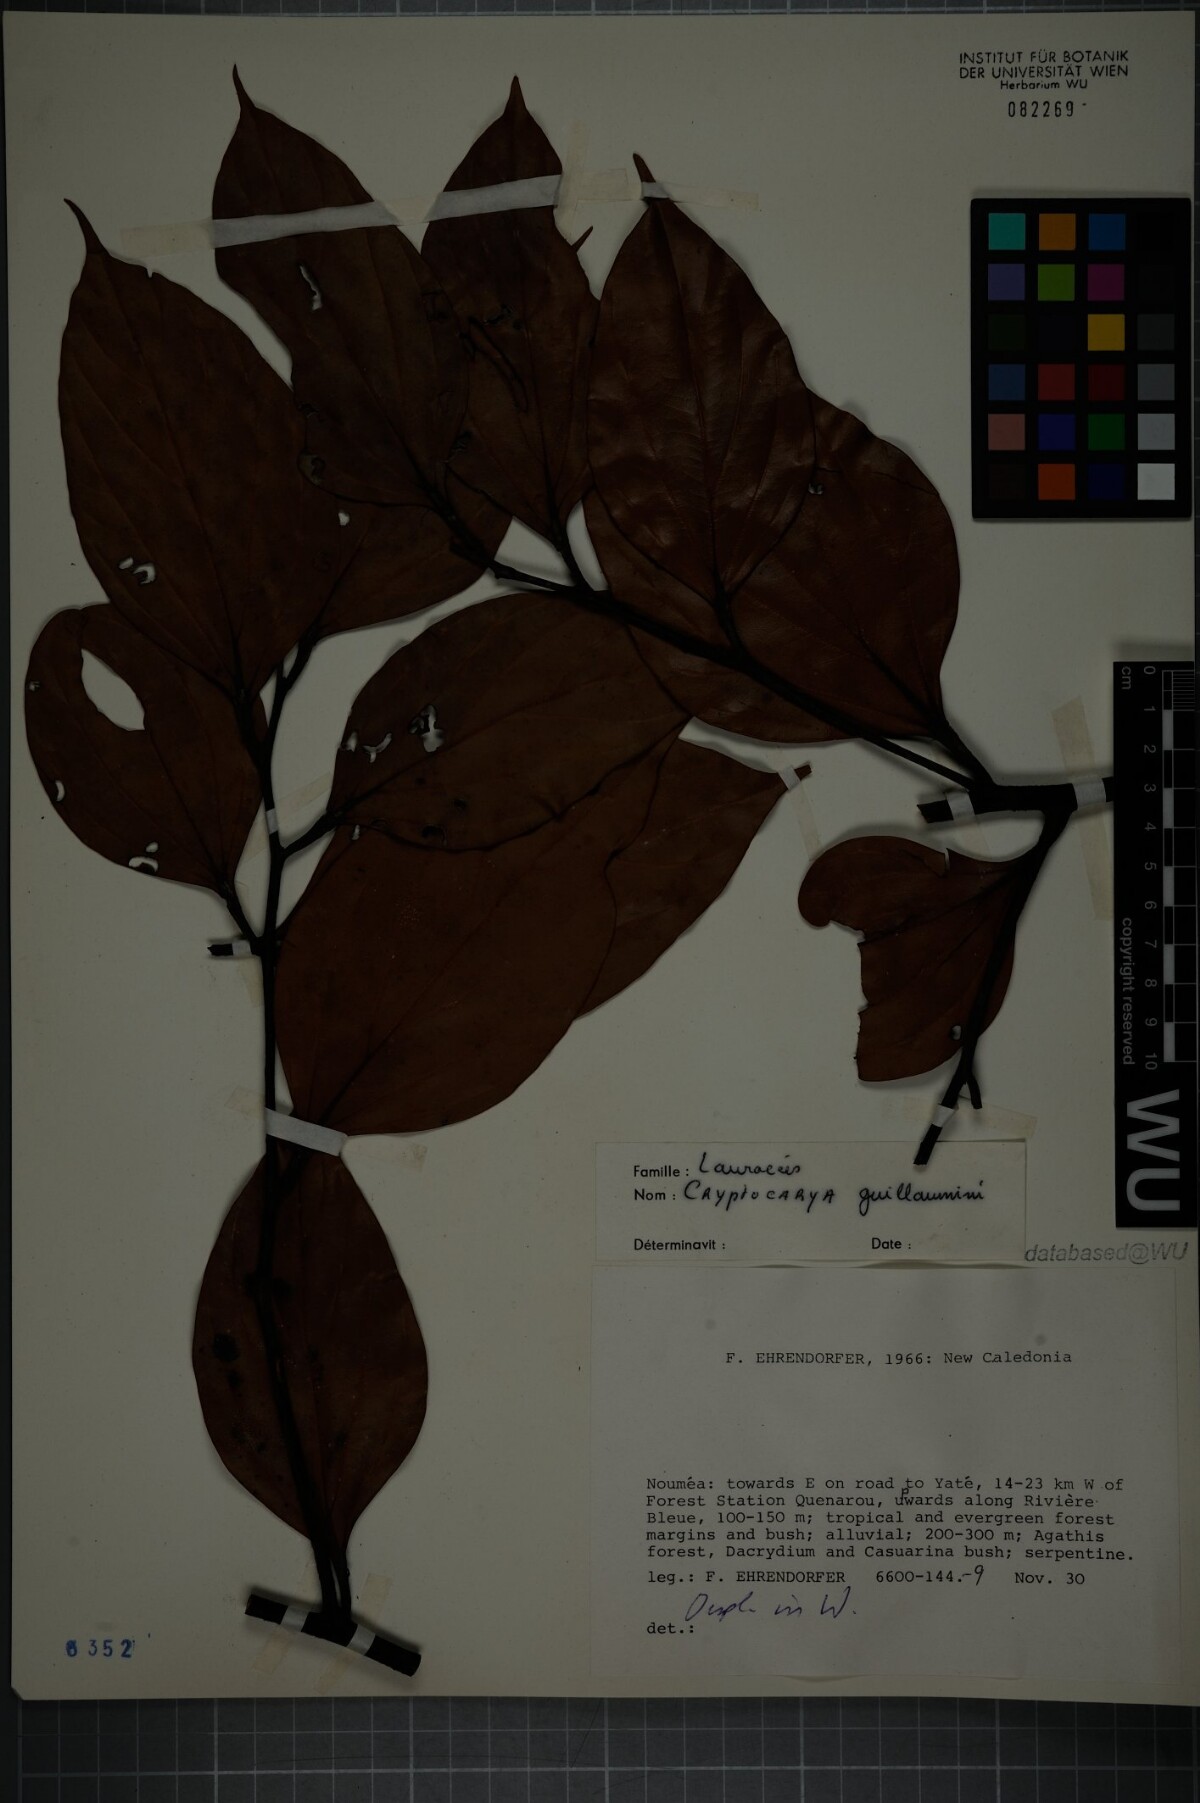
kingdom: Plantae
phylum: Tracheophyta
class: Magnoliopsida
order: Laurales
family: Lauraceae
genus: Cryptocarya
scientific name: Cryptocarya guillauminii
